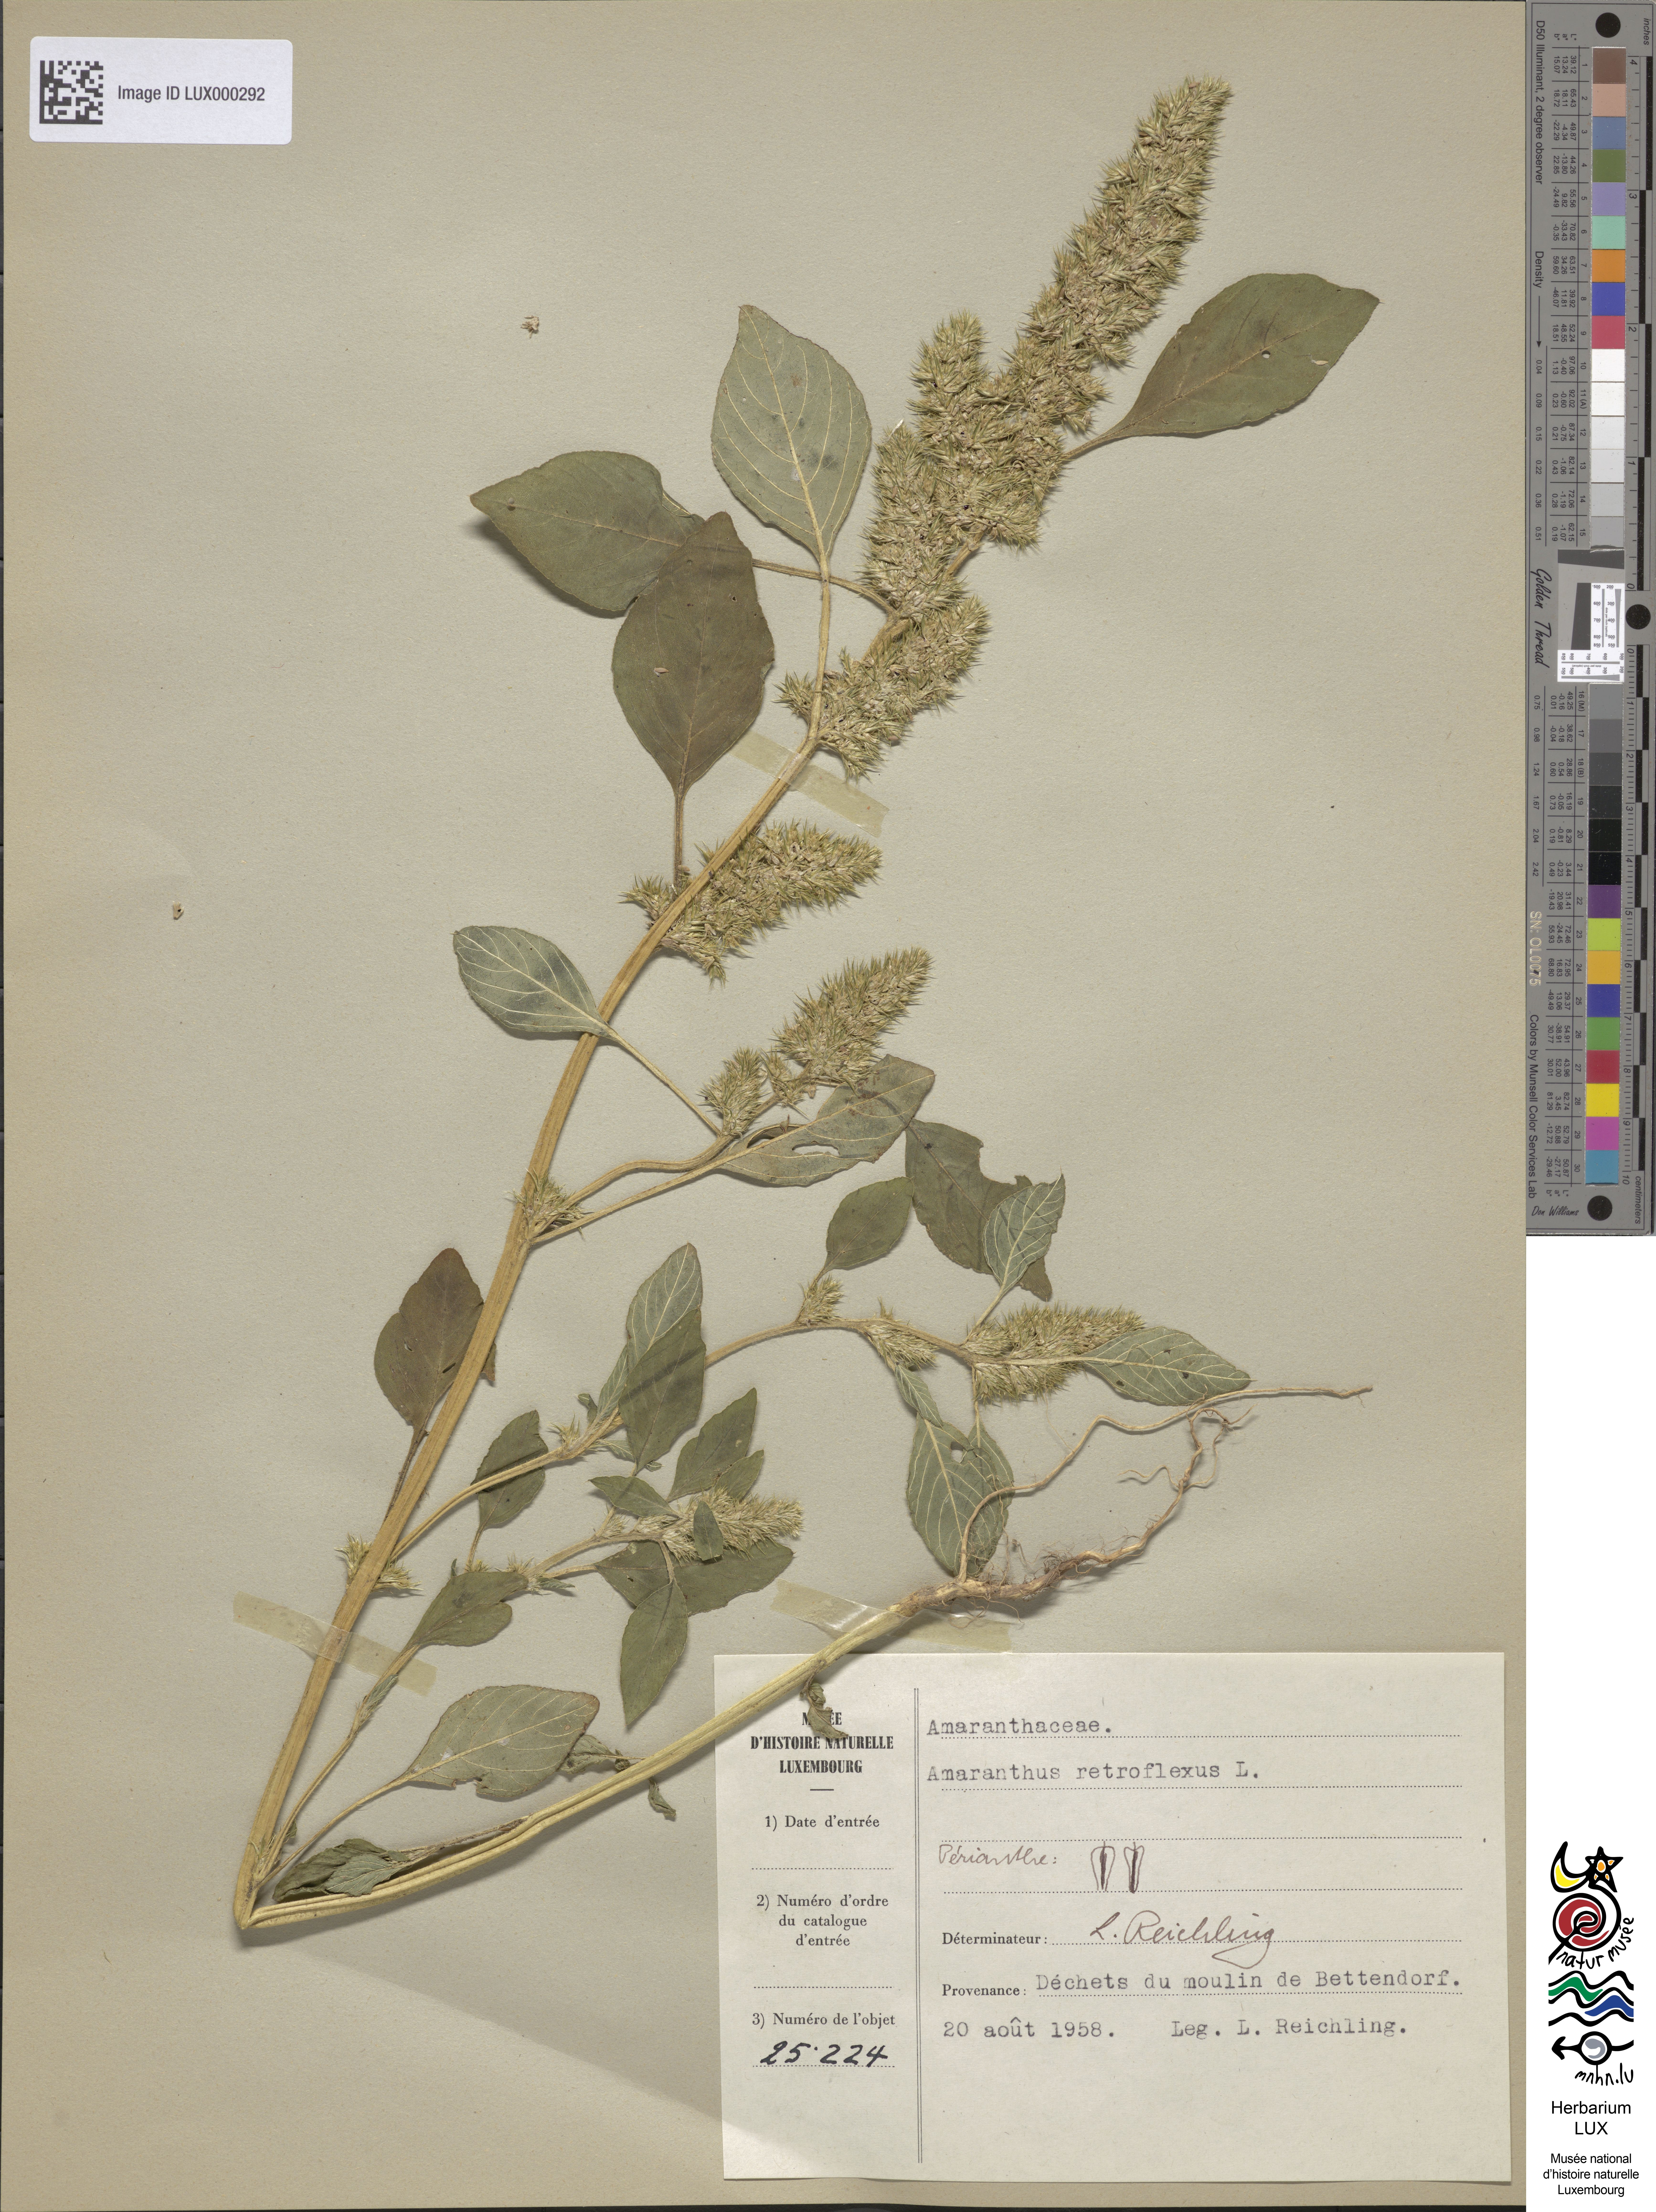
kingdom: Plantae
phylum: Tracheophyta
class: Magnoliopsida
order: Caryophyllales
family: Amaranthaceae
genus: Amaranthus
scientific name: Amaranthus retroflexus
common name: Redroot amaranth
